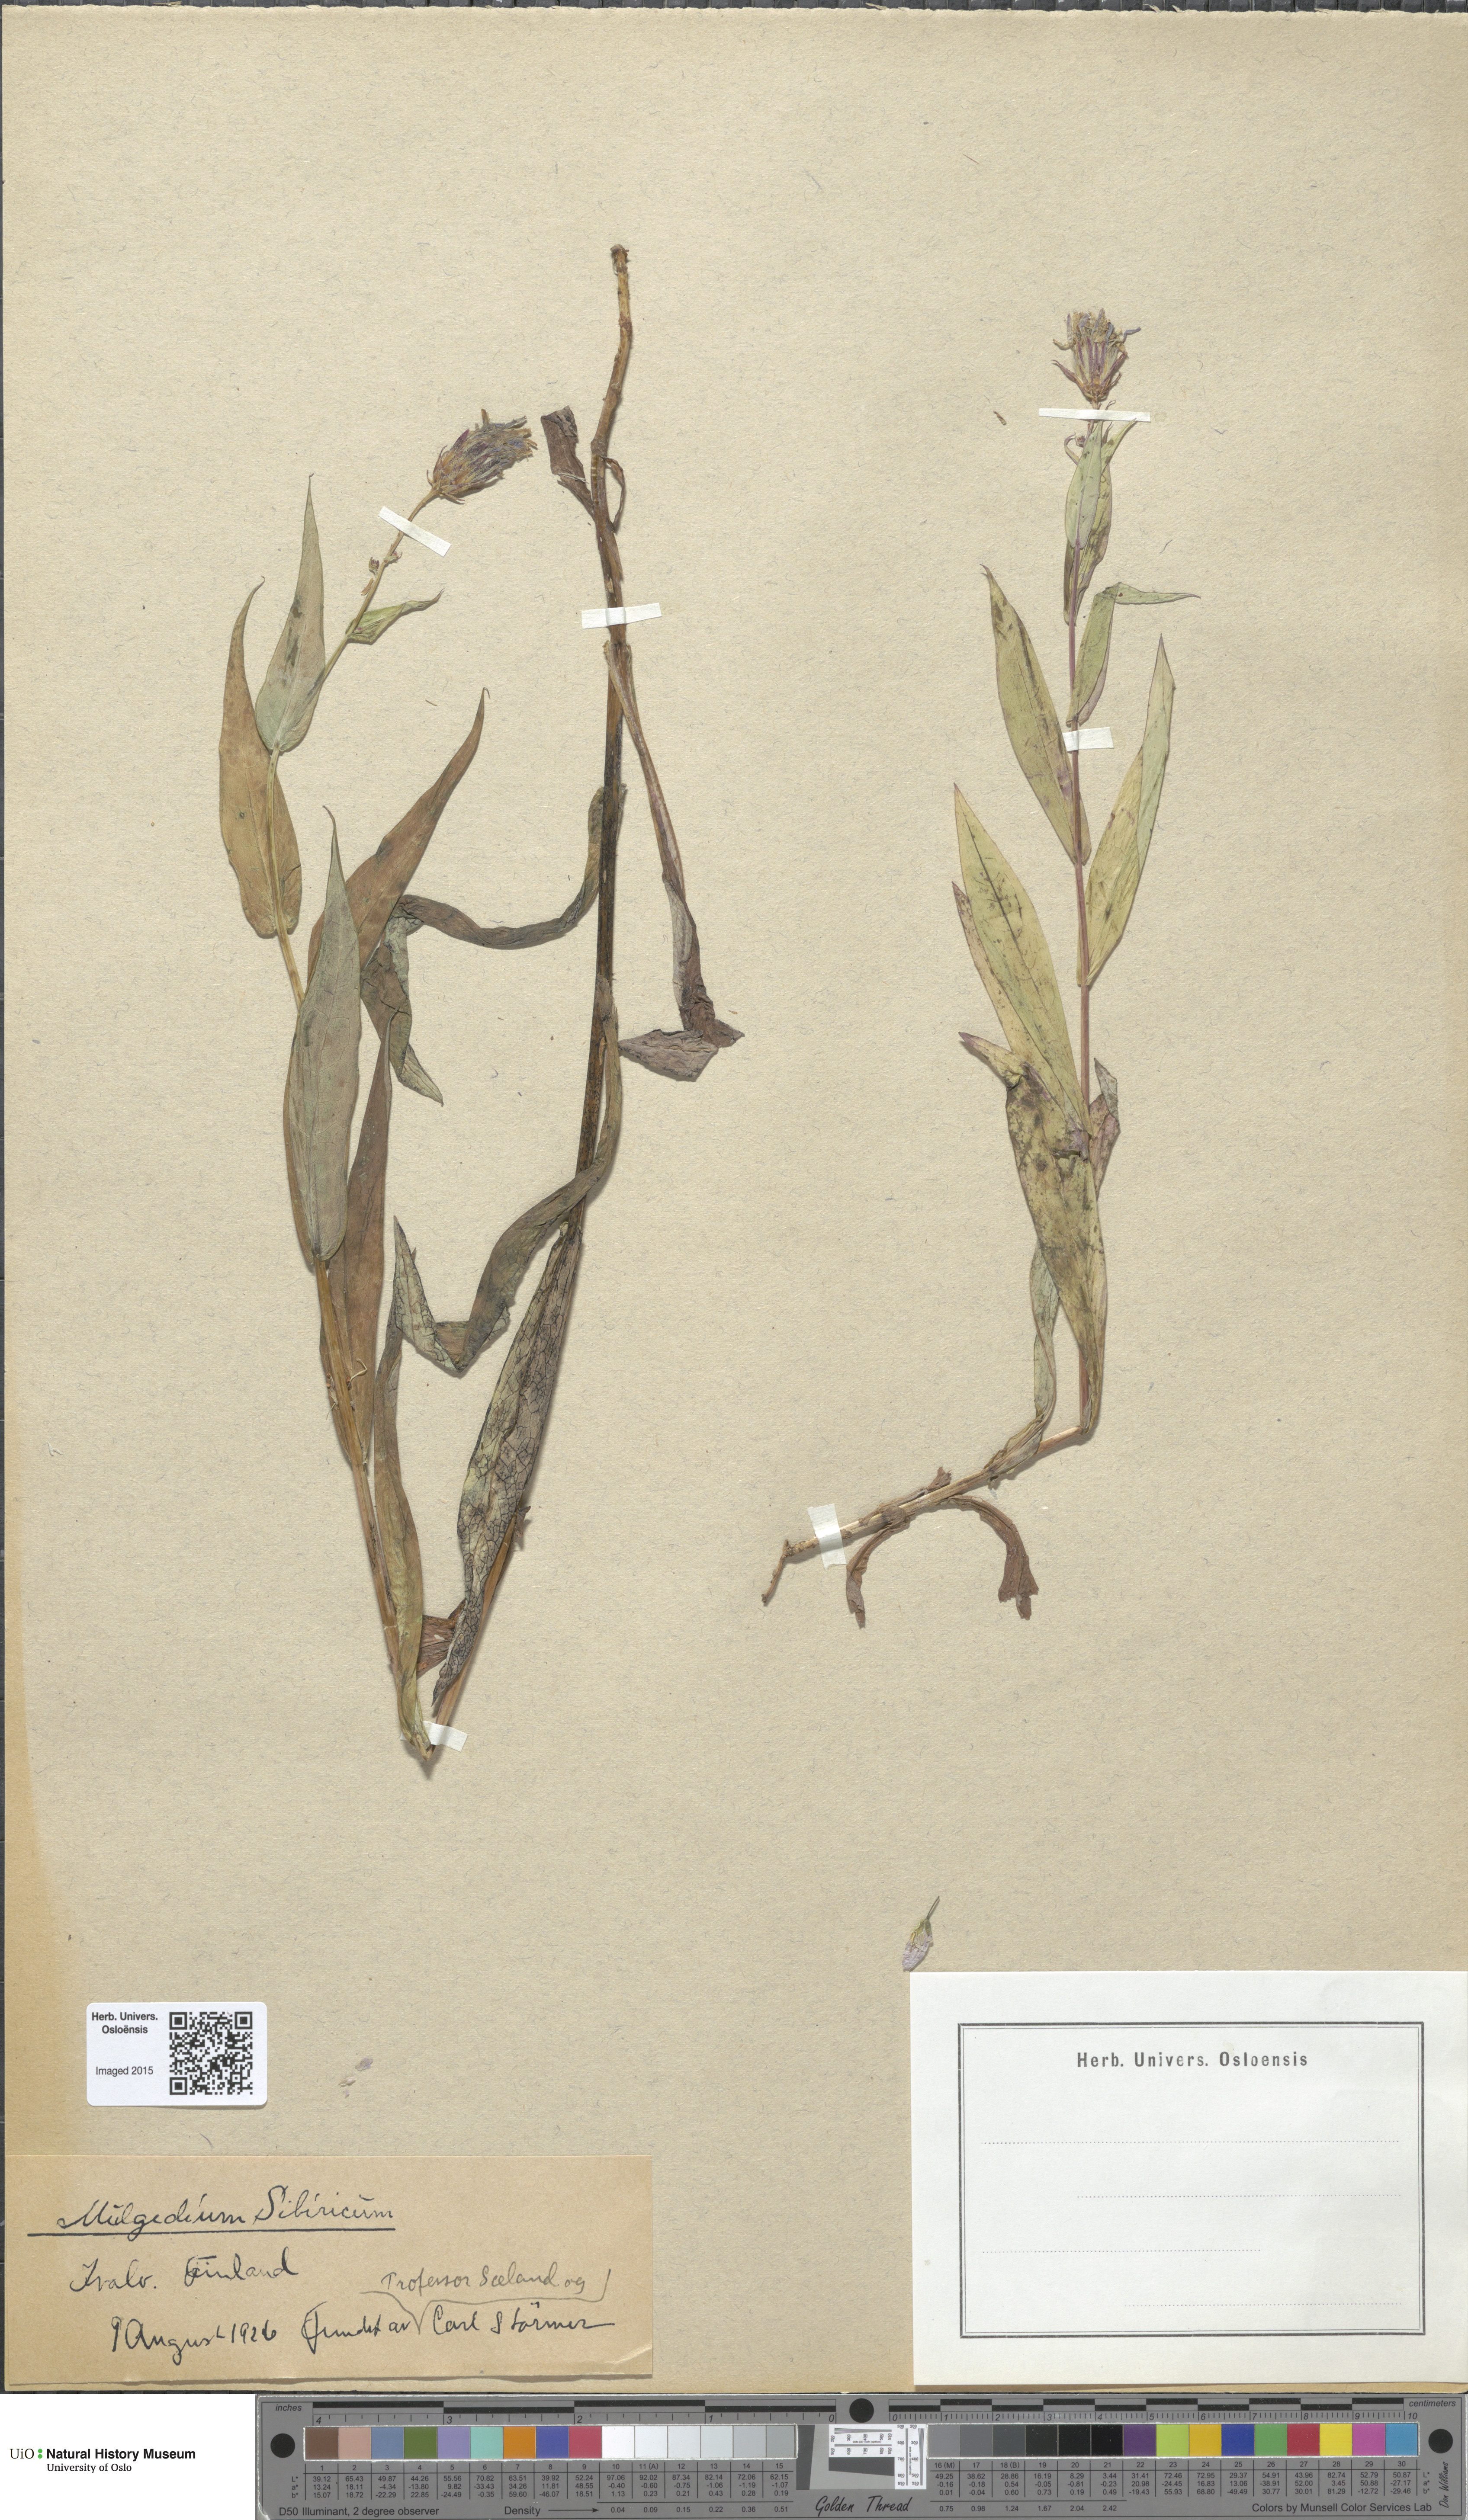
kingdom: Plantae
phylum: Tracheophyta
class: Magnoliopsida
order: Asterales
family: Asteraceae
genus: Lactuca
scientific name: Lactuca sibirica
